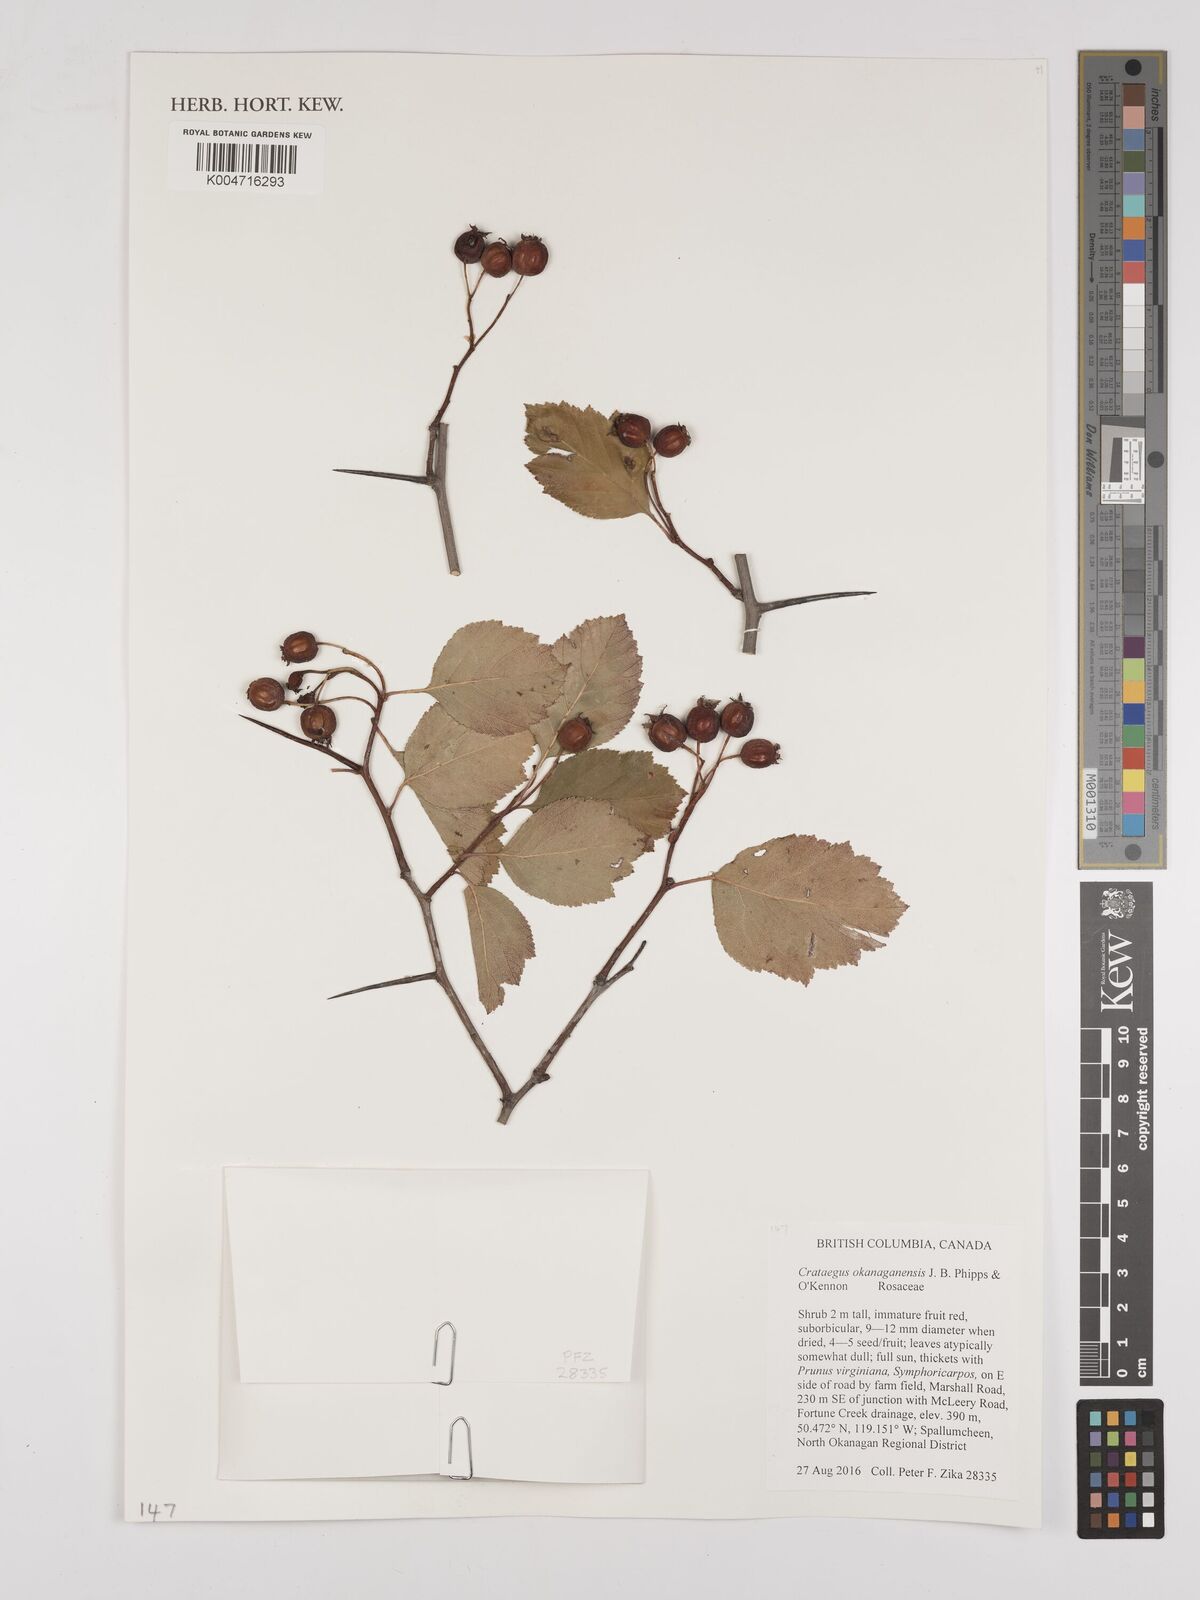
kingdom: Plantae
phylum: Tracheophyta
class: Magnoliopsida
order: Rosales
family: Rosaceae
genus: Crataegus
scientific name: Crataegus okanaganensis
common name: Okanagan valley hawthorn
